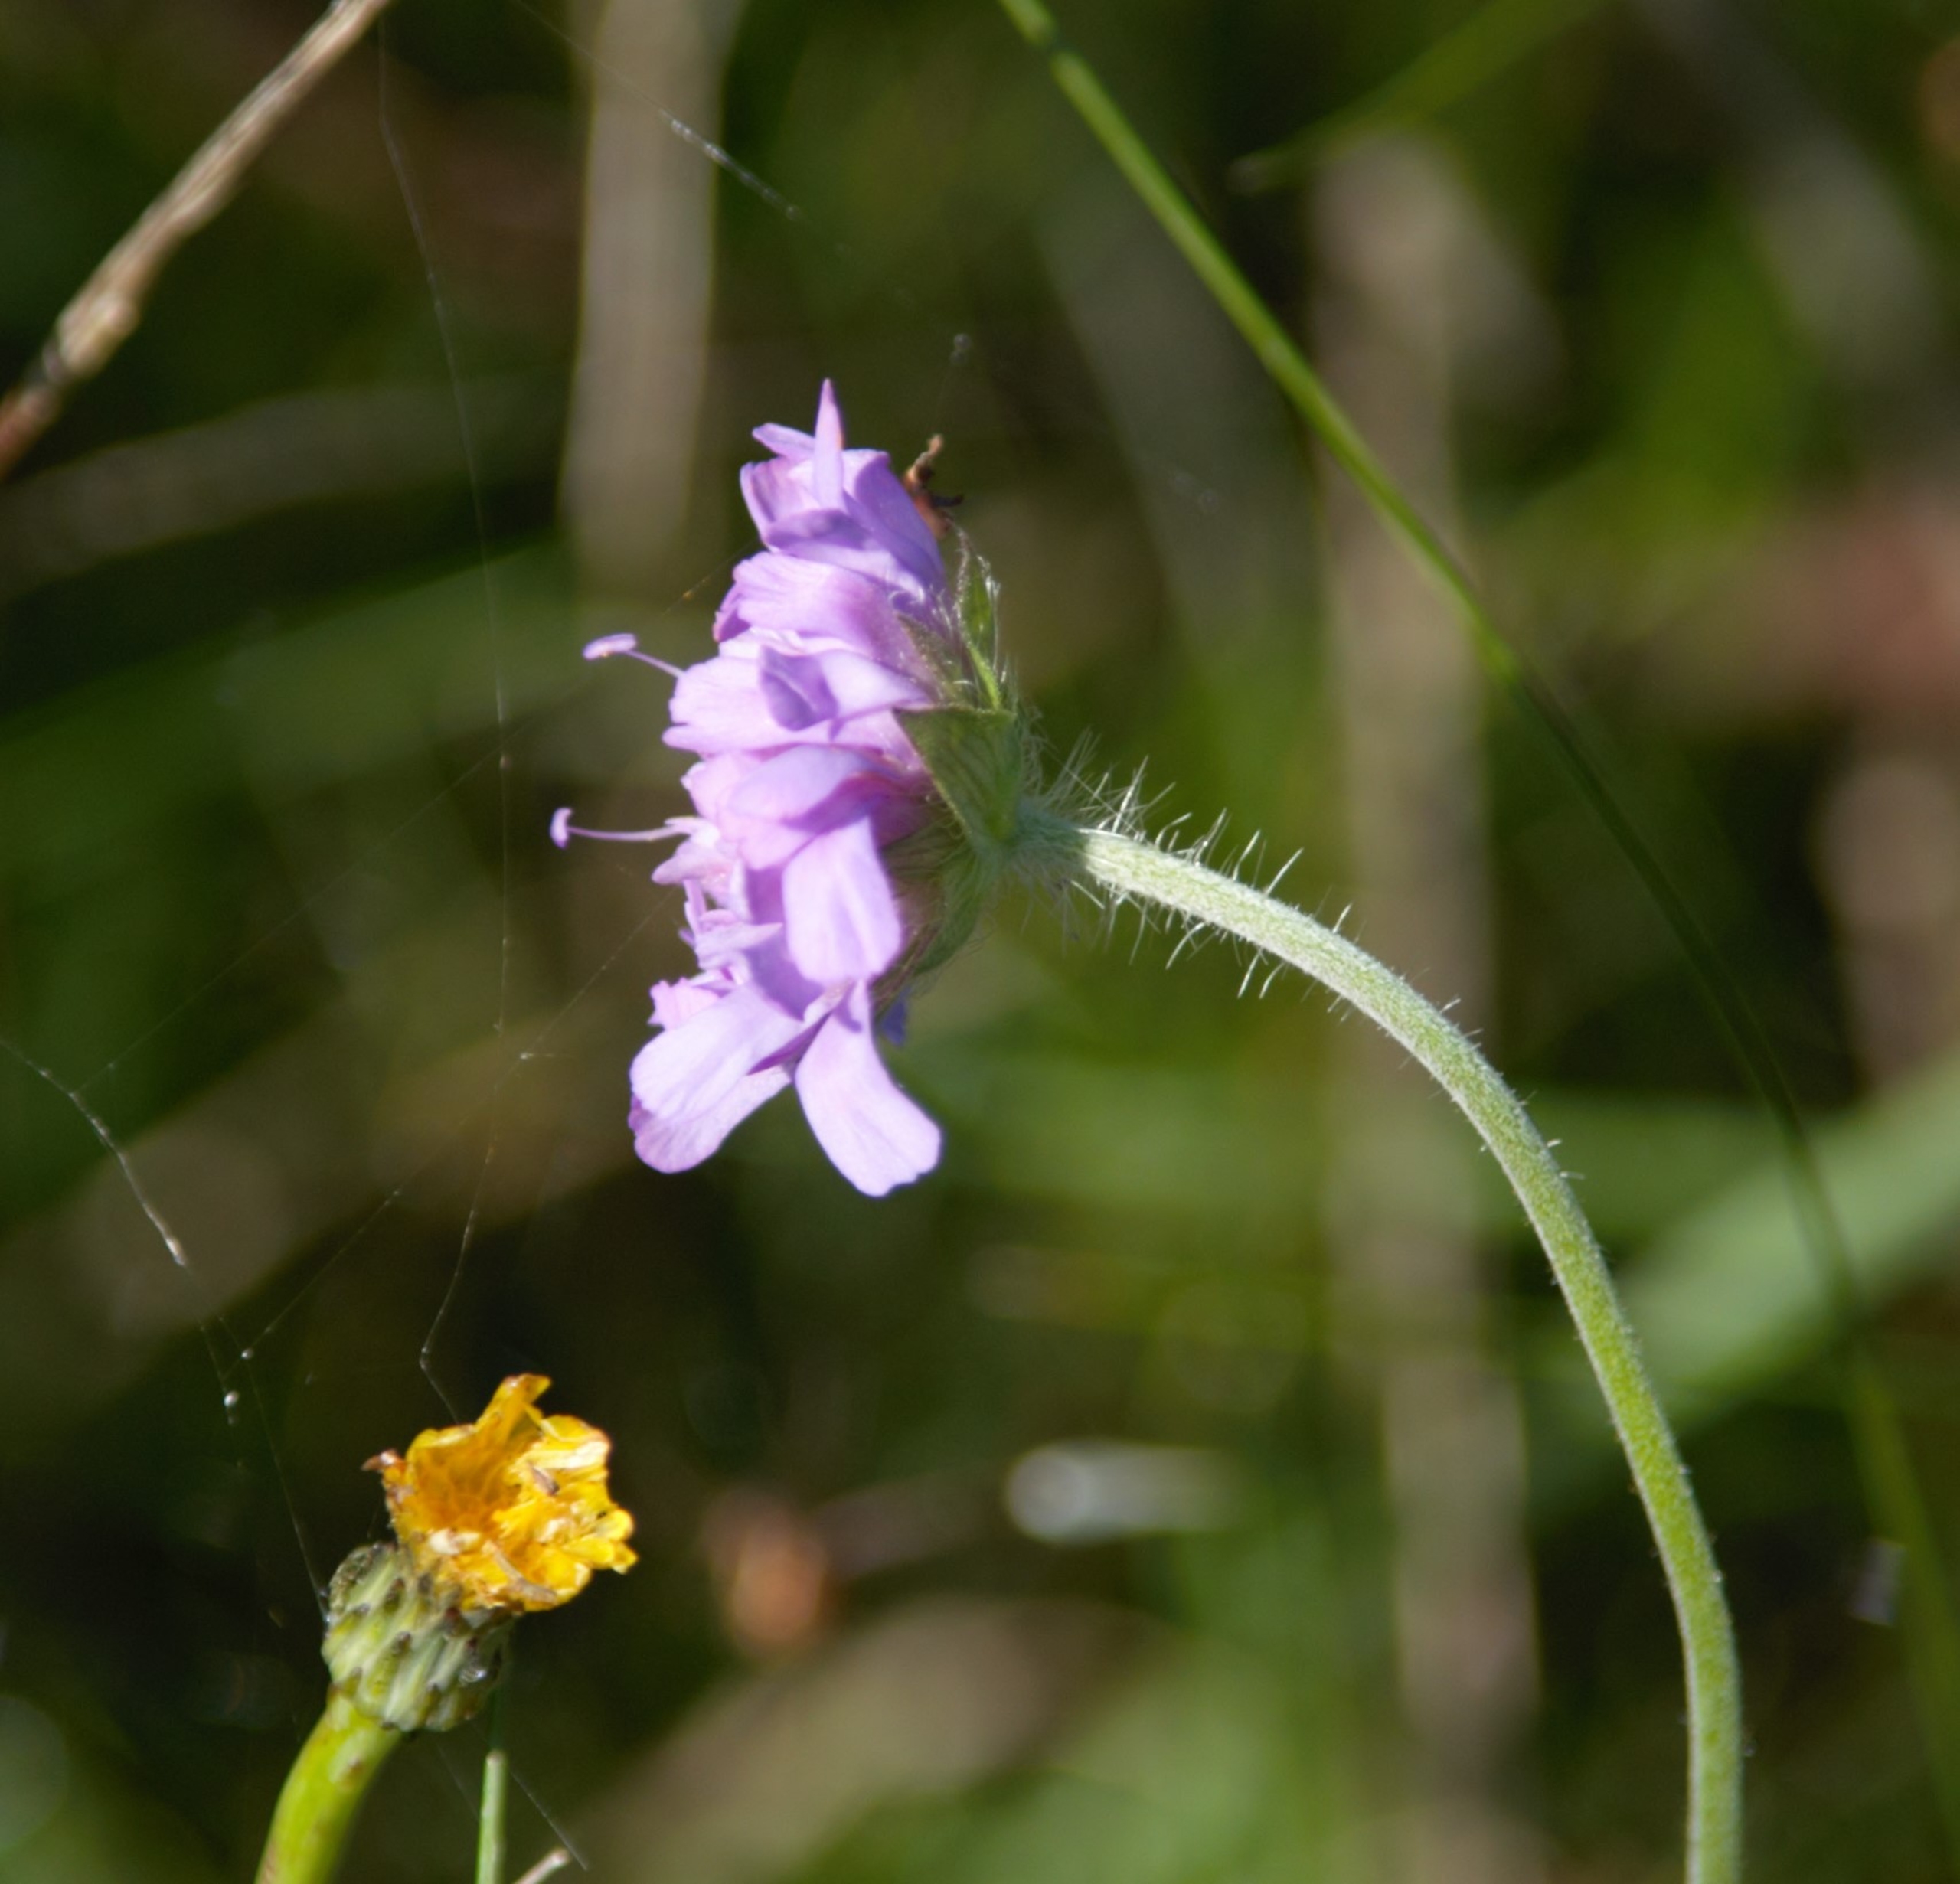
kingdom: Plantae
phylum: Tracheophyta
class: Magnoliopsida
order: Dipsacales
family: Caprifoliaceae
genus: Knautia
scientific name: Knautia arvensis
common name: Blåhat
